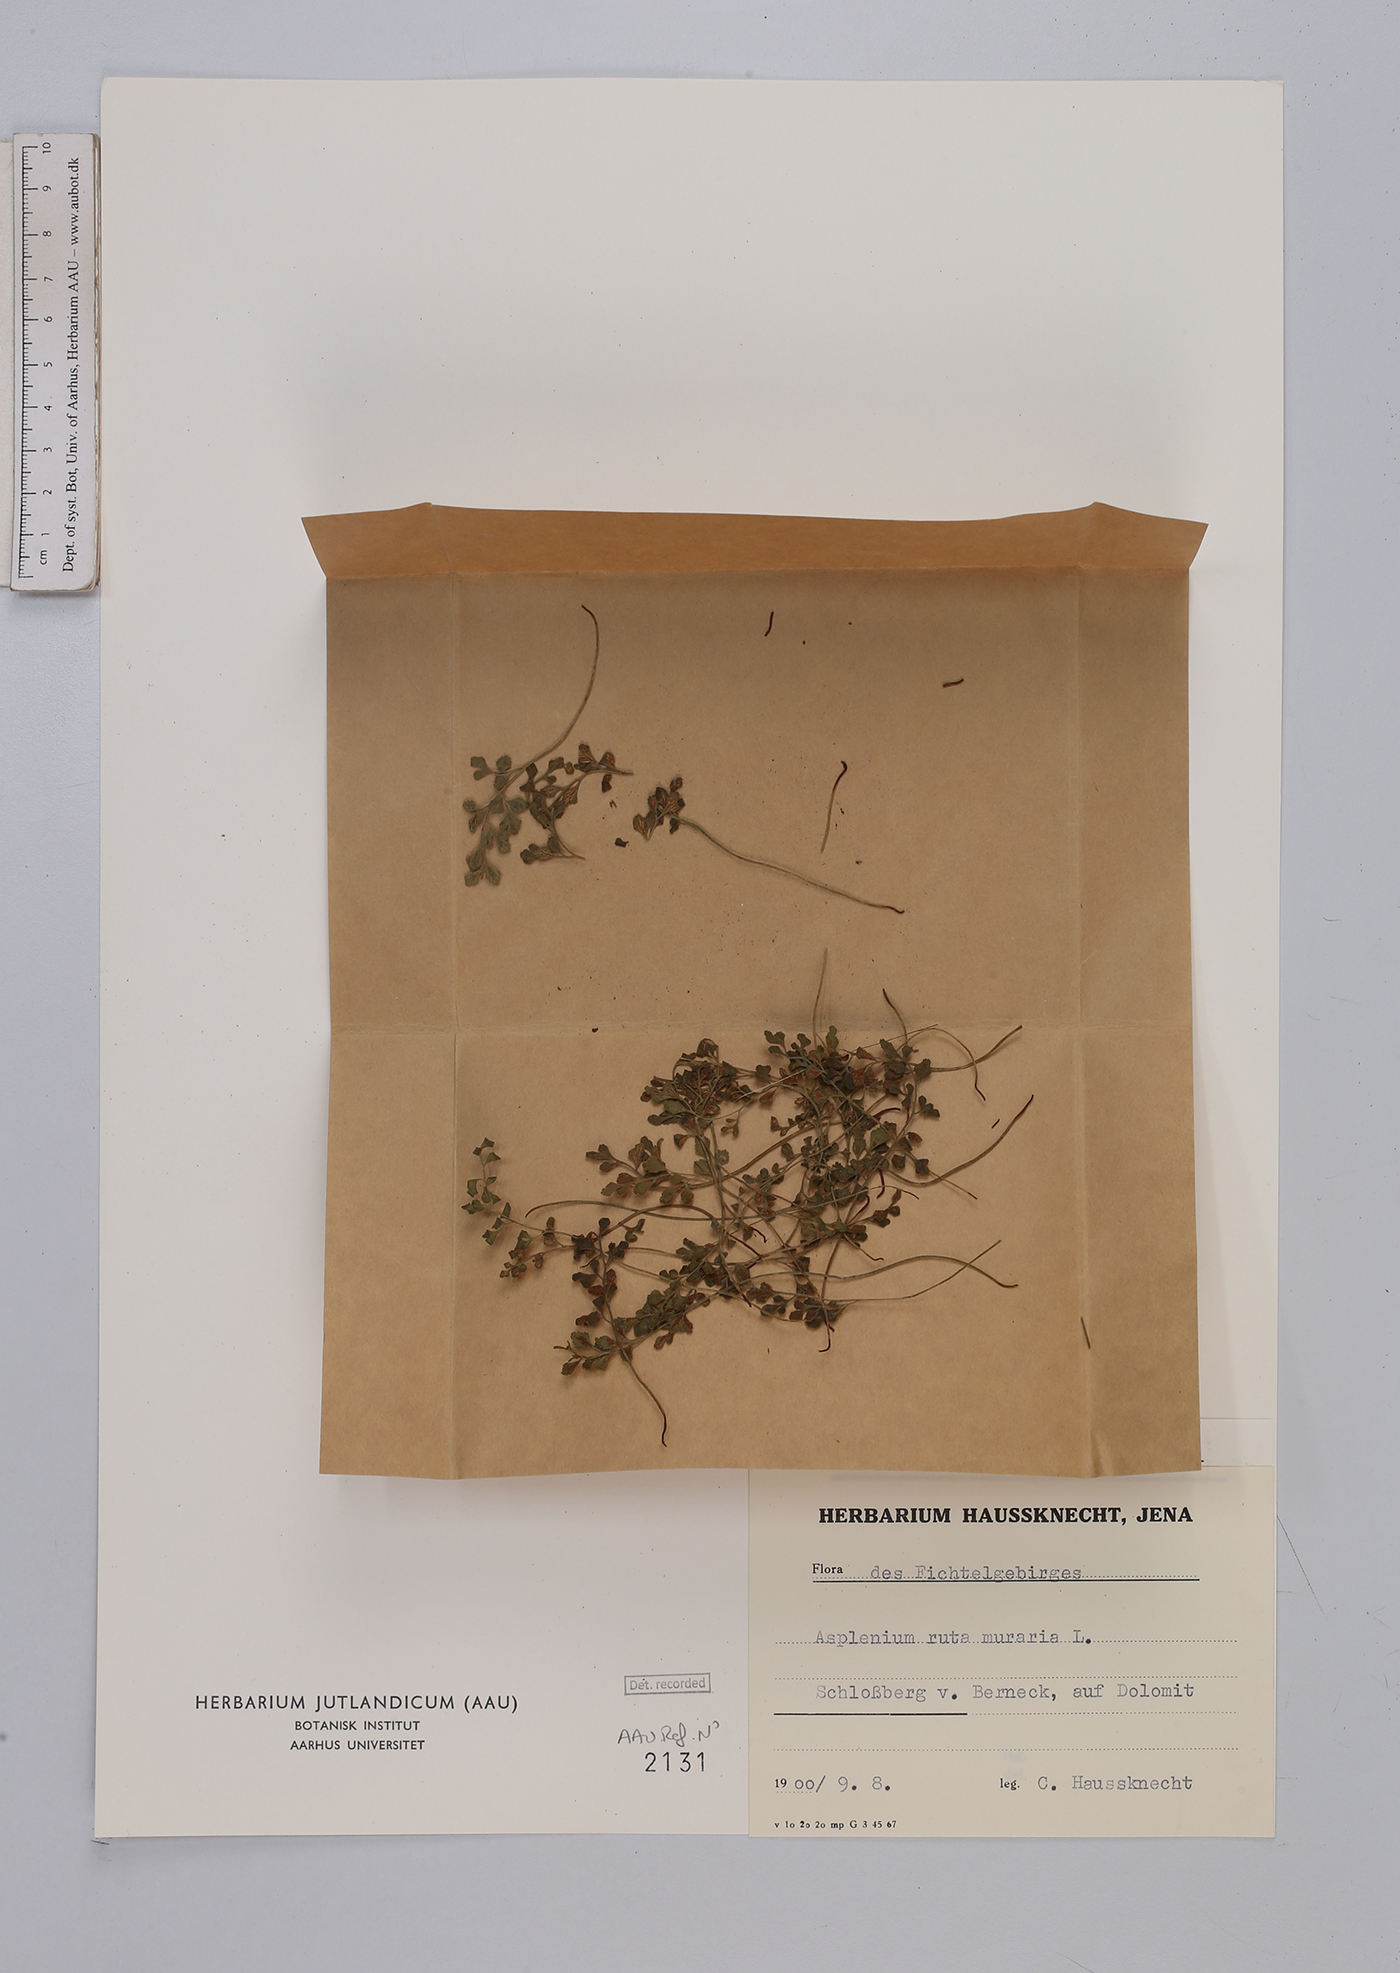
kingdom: Plantae
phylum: Tracheophyta
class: Polypodiopsida
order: Polypodiales
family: Aspleniaceae
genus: Asplenium
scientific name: Asplenium ruta-muraria
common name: Wall-rue
